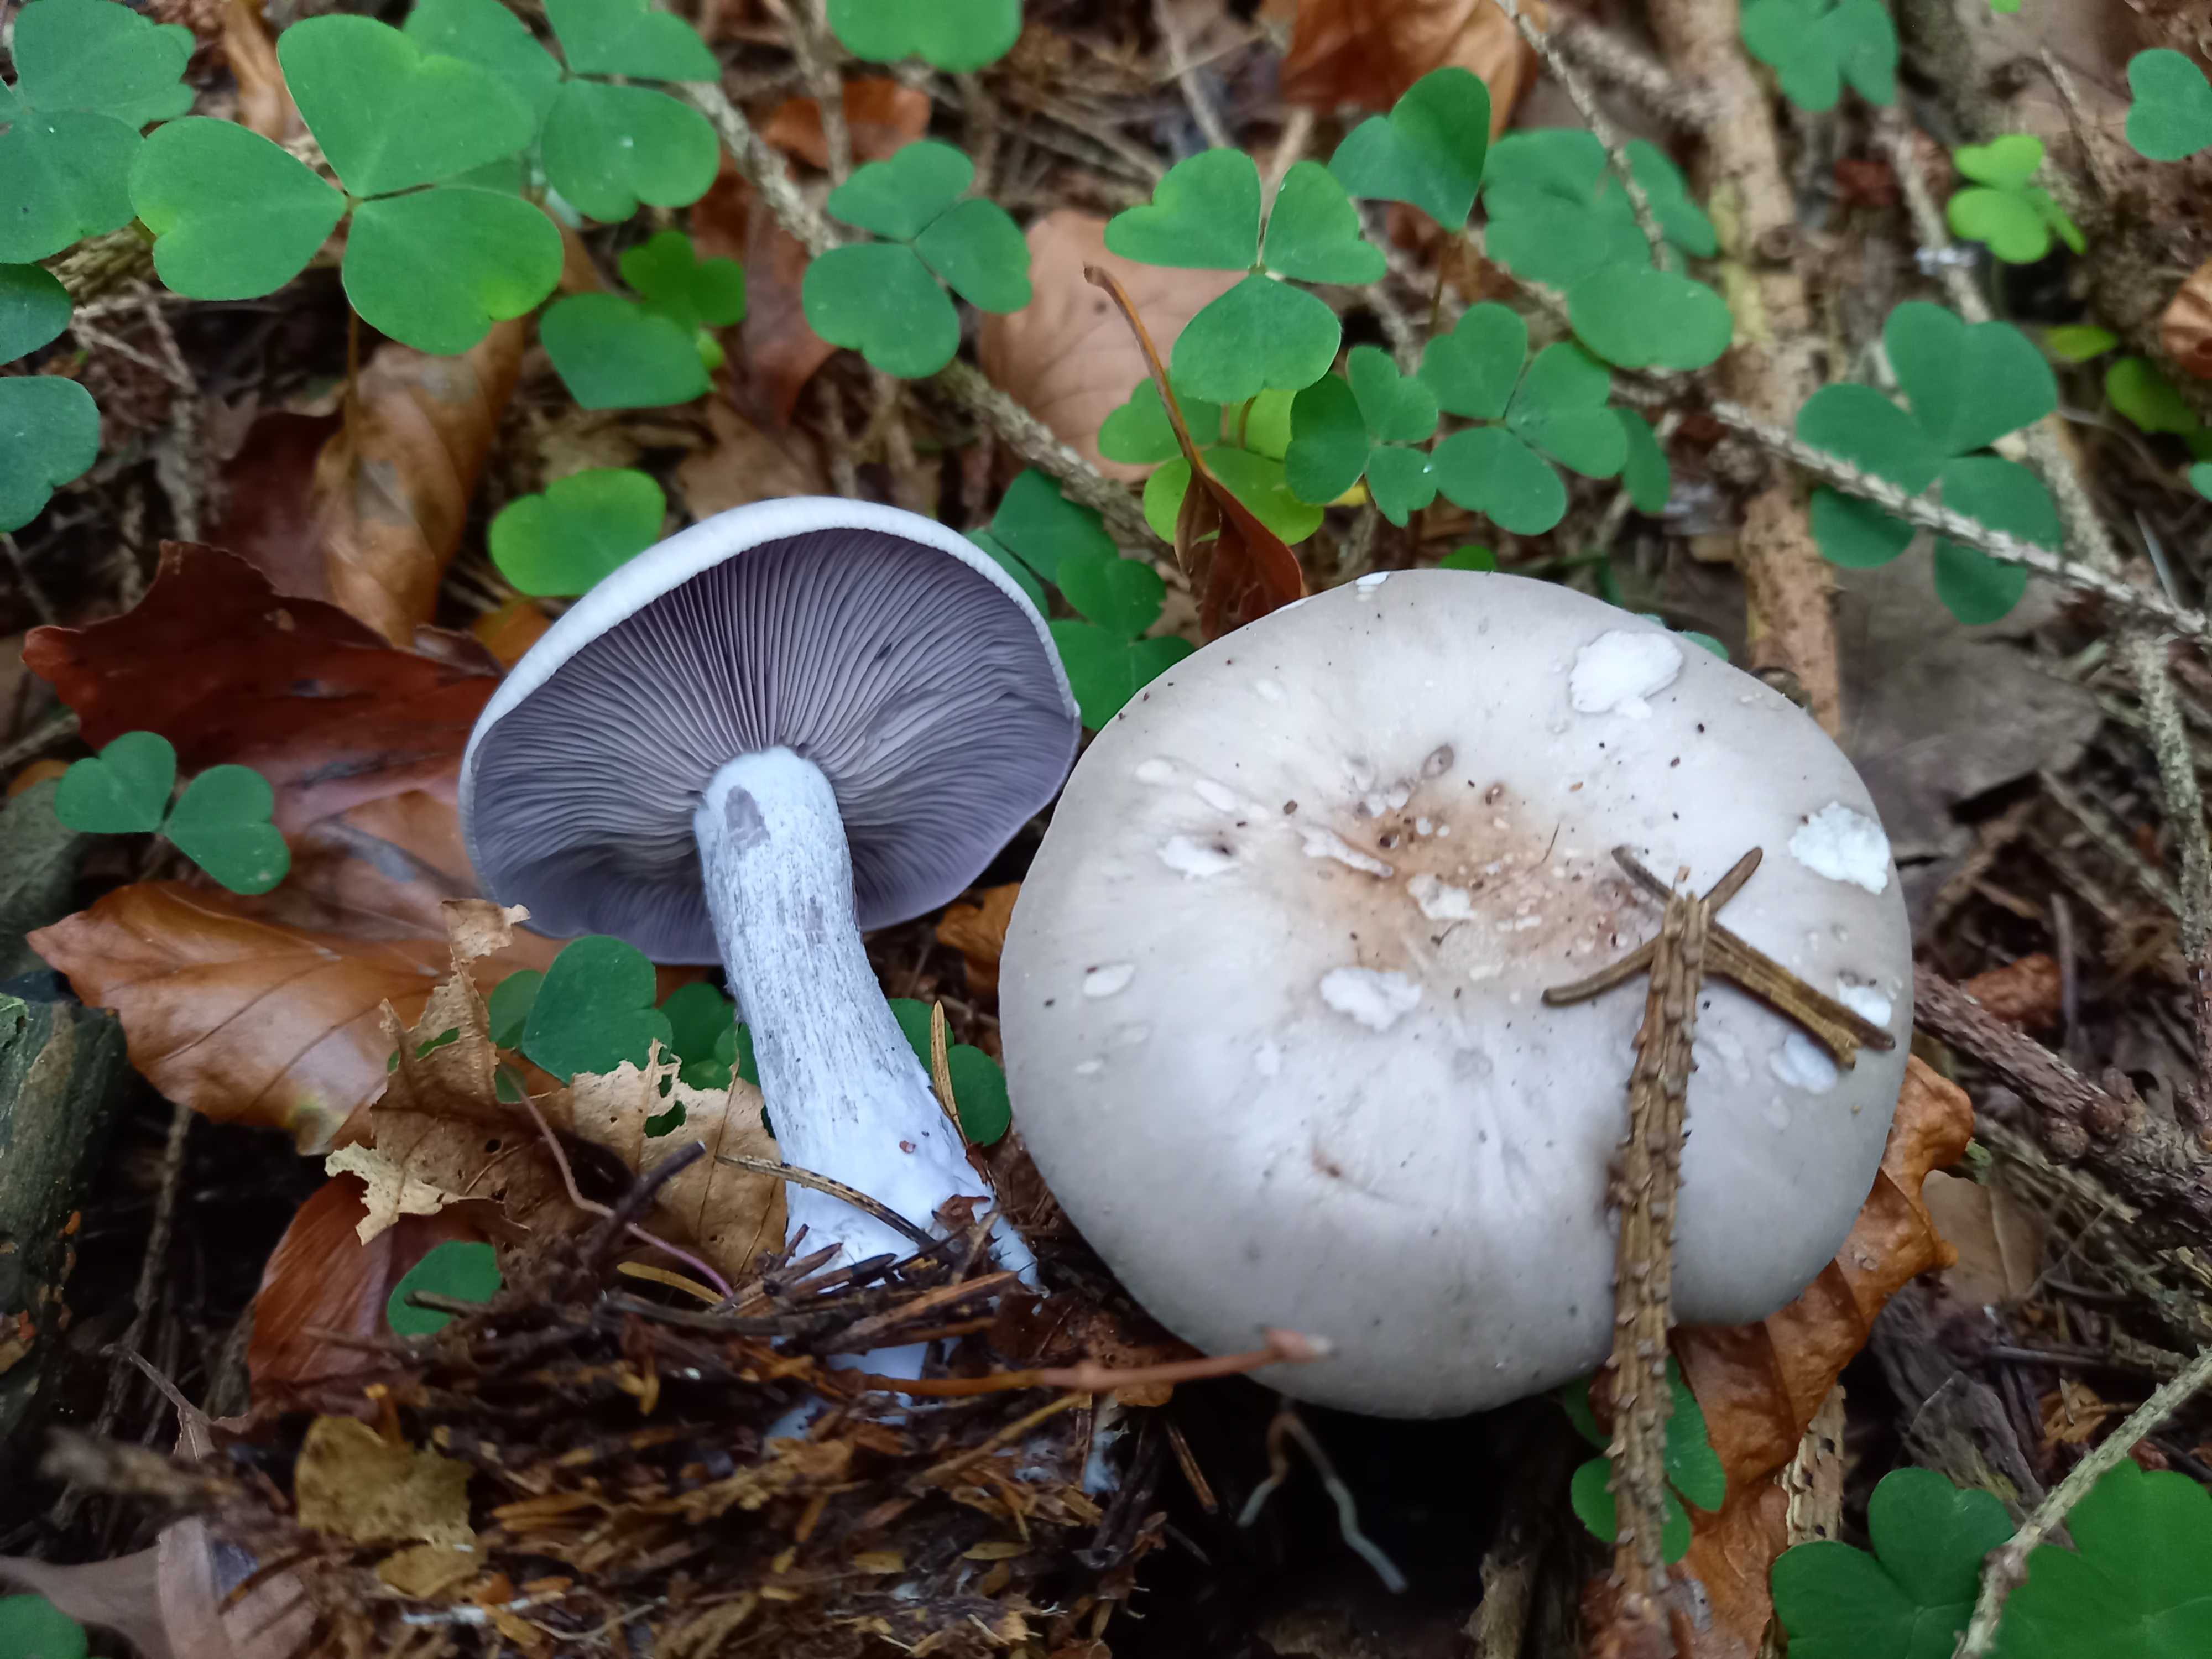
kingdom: Fungi
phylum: Basidiomycota
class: Agaricomycetes
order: Agaricales
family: Tricholomataceae
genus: Lepista
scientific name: Lepista nuda
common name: violet hekseringshat
